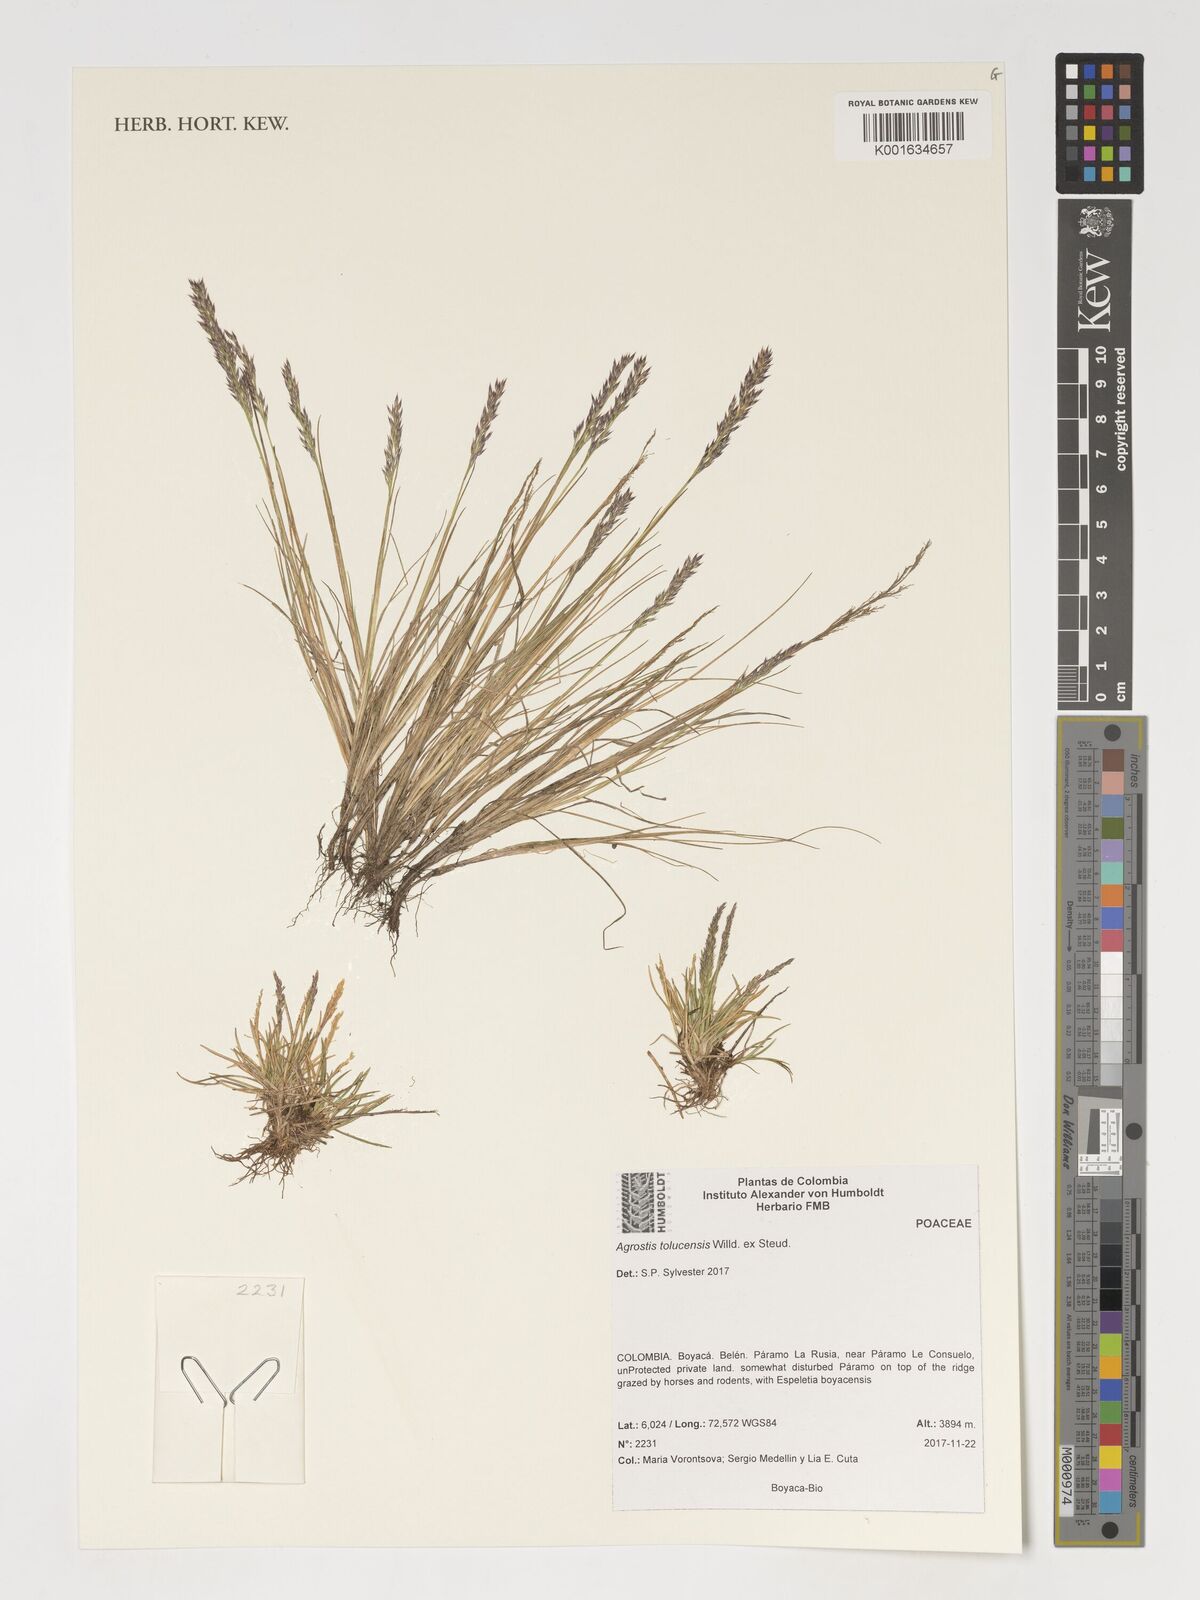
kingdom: Plantae
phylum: Tracheophyta
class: Liliopsida
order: Poales
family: Poaceae
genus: Agrostis
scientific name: Agrostis tolucensis
